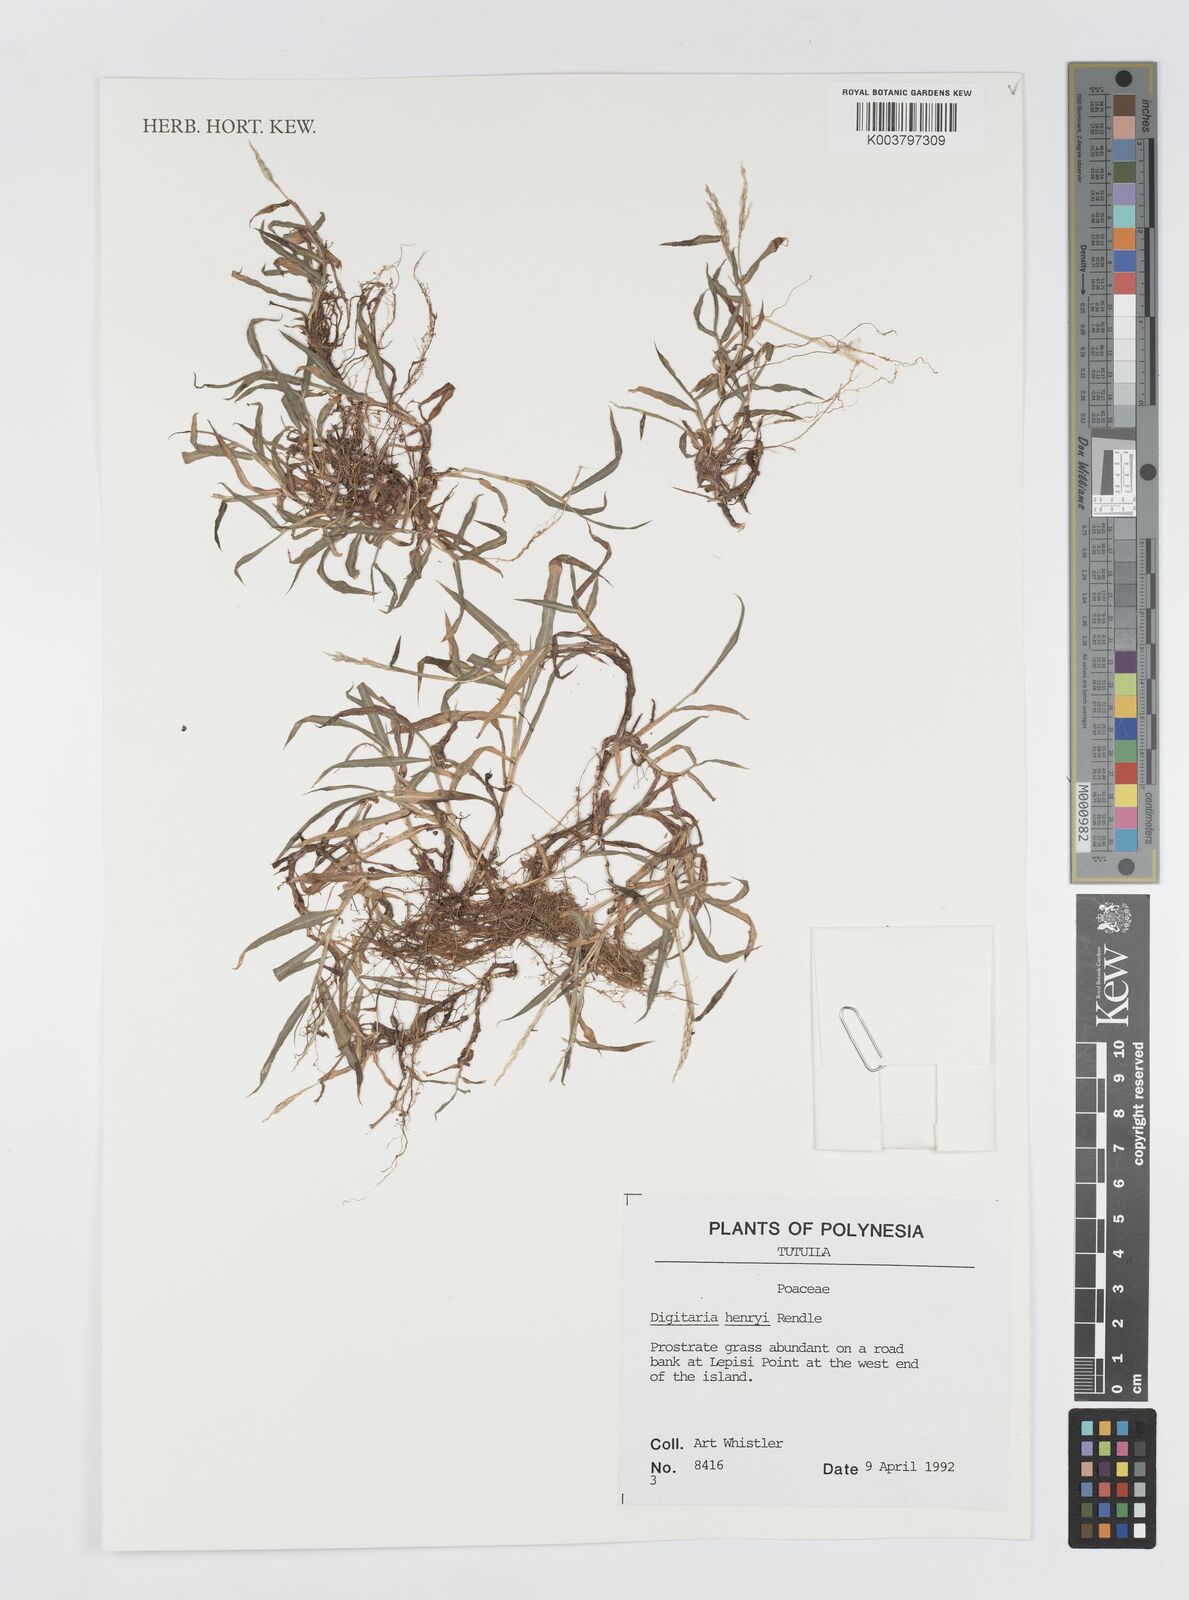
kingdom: Plantae
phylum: Tracheophyta
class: Liliopsida
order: Poales
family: Poaceae
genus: Digitaria
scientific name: Digitaria ciliaris
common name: Tropical finger-grass
